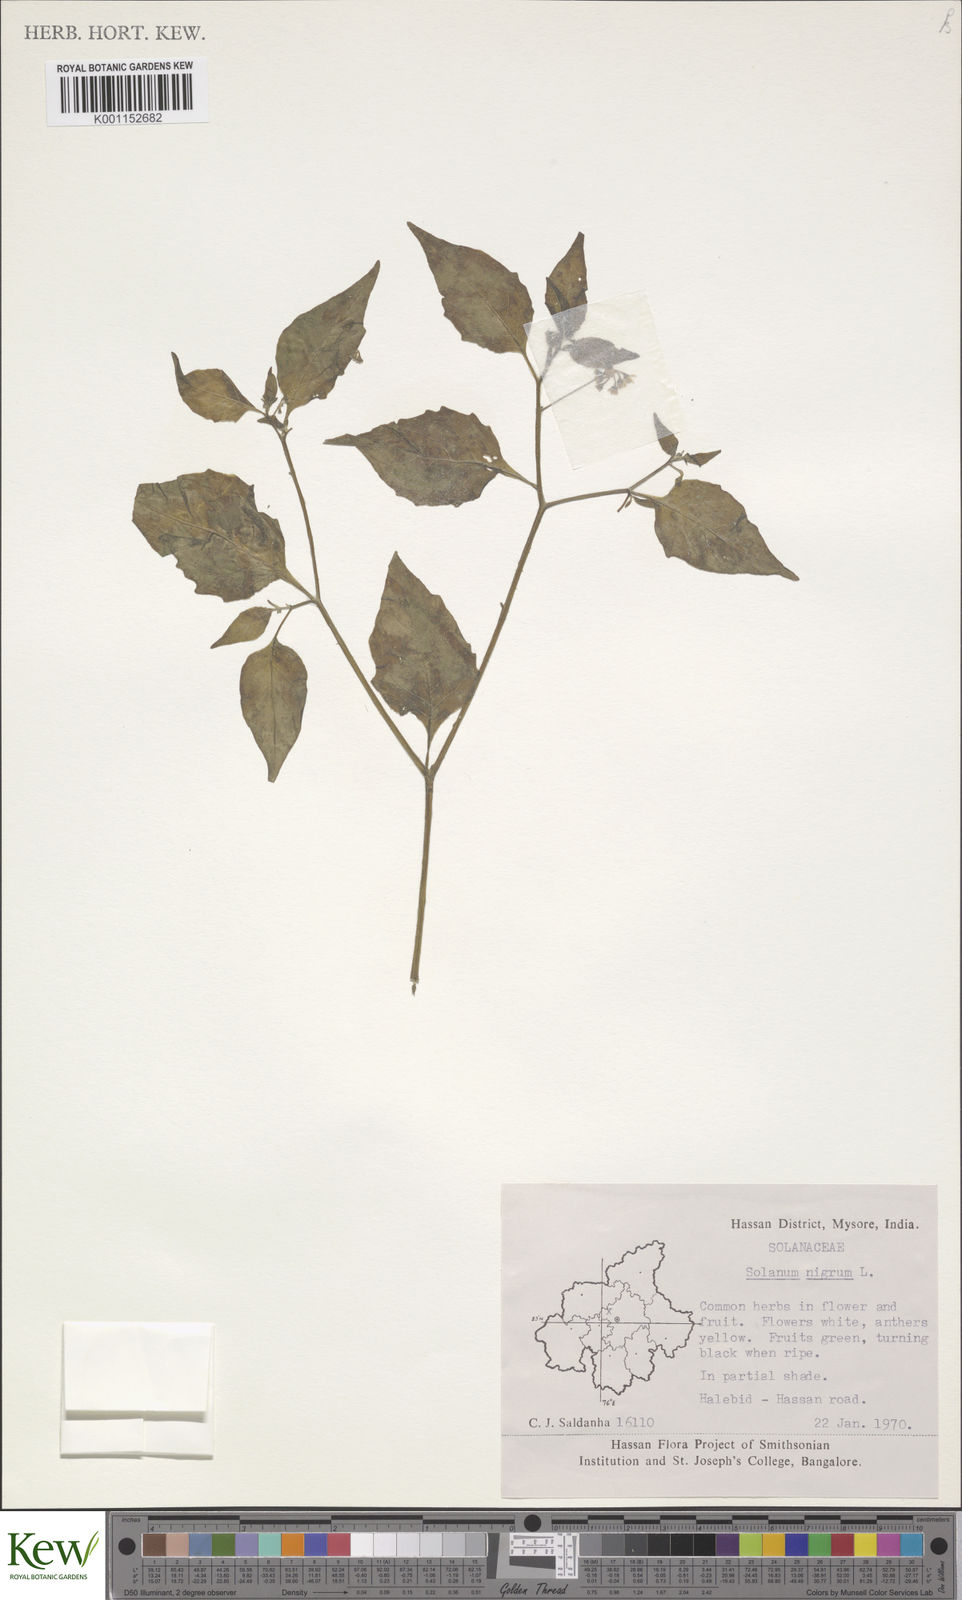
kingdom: Plantae
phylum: Tracheophyta
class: Magnoliopsida
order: Solanales
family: Solanaceae
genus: Solanum
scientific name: Solanum nigrum
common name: Black nightshade
